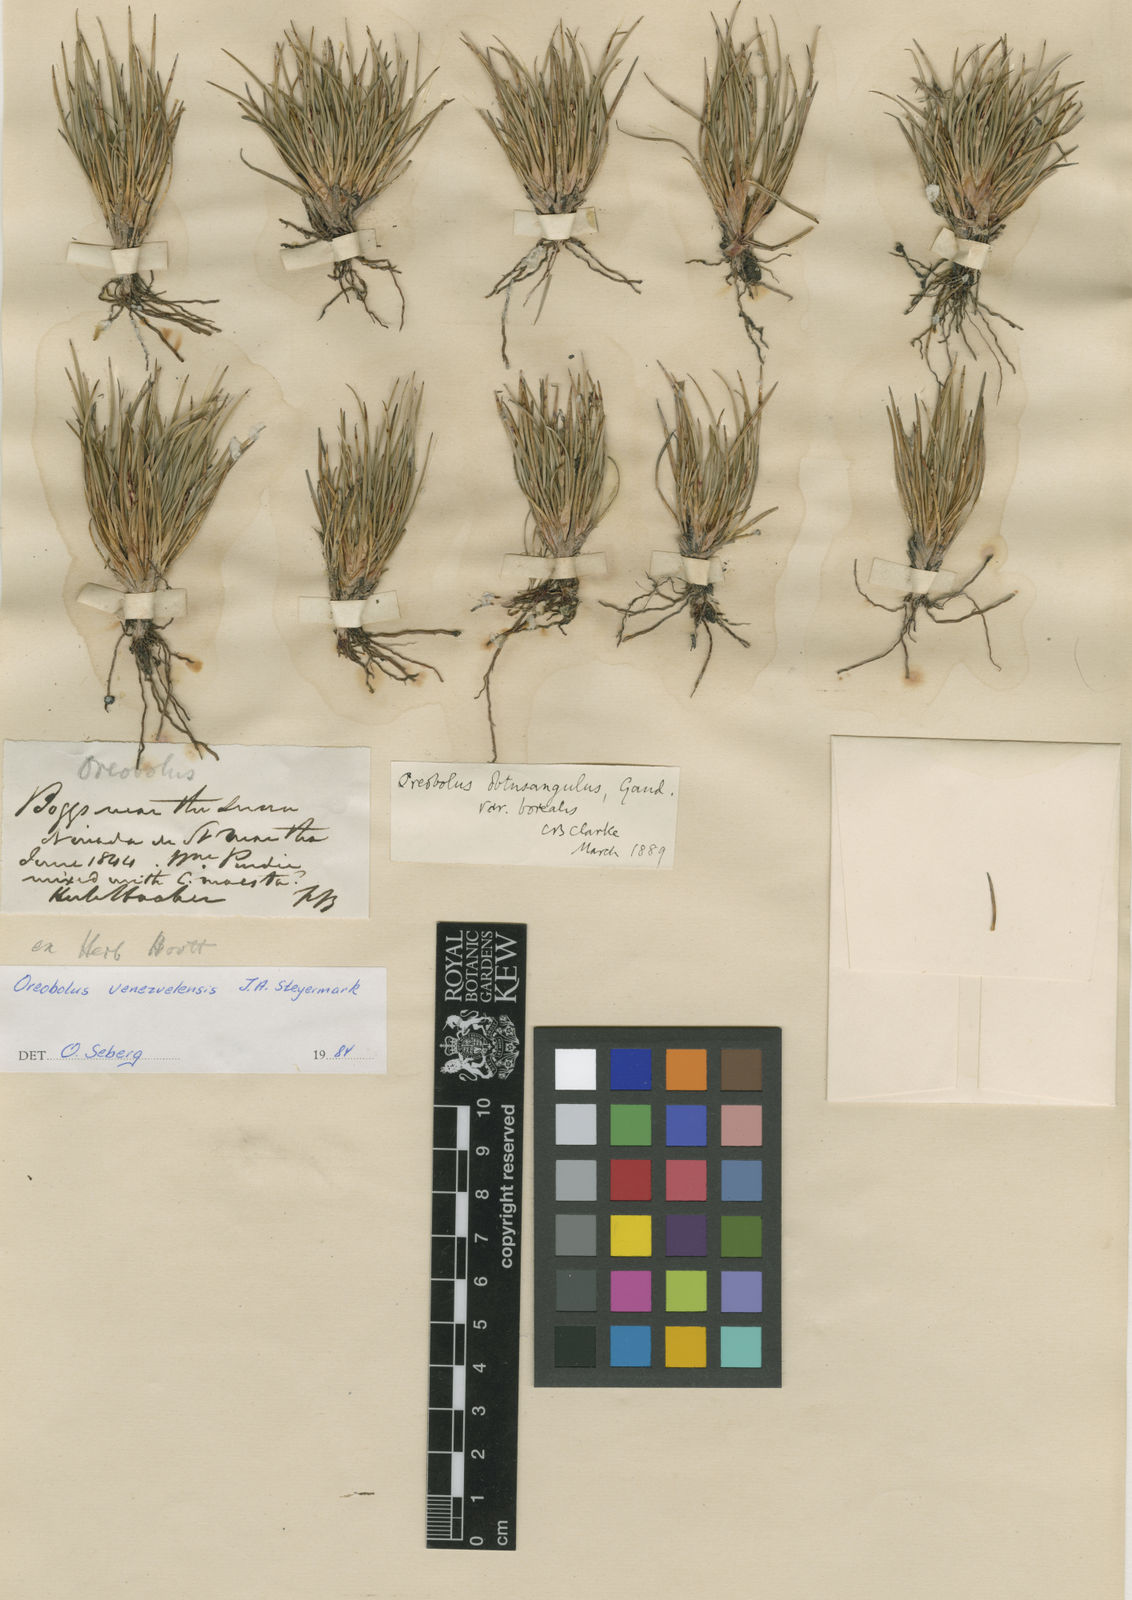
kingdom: Plantae
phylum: Tracheophyta
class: Liliopsida
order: Poales
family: Cyperaceae
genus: Oreobolus
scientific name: Oreobolus venezuelensis
